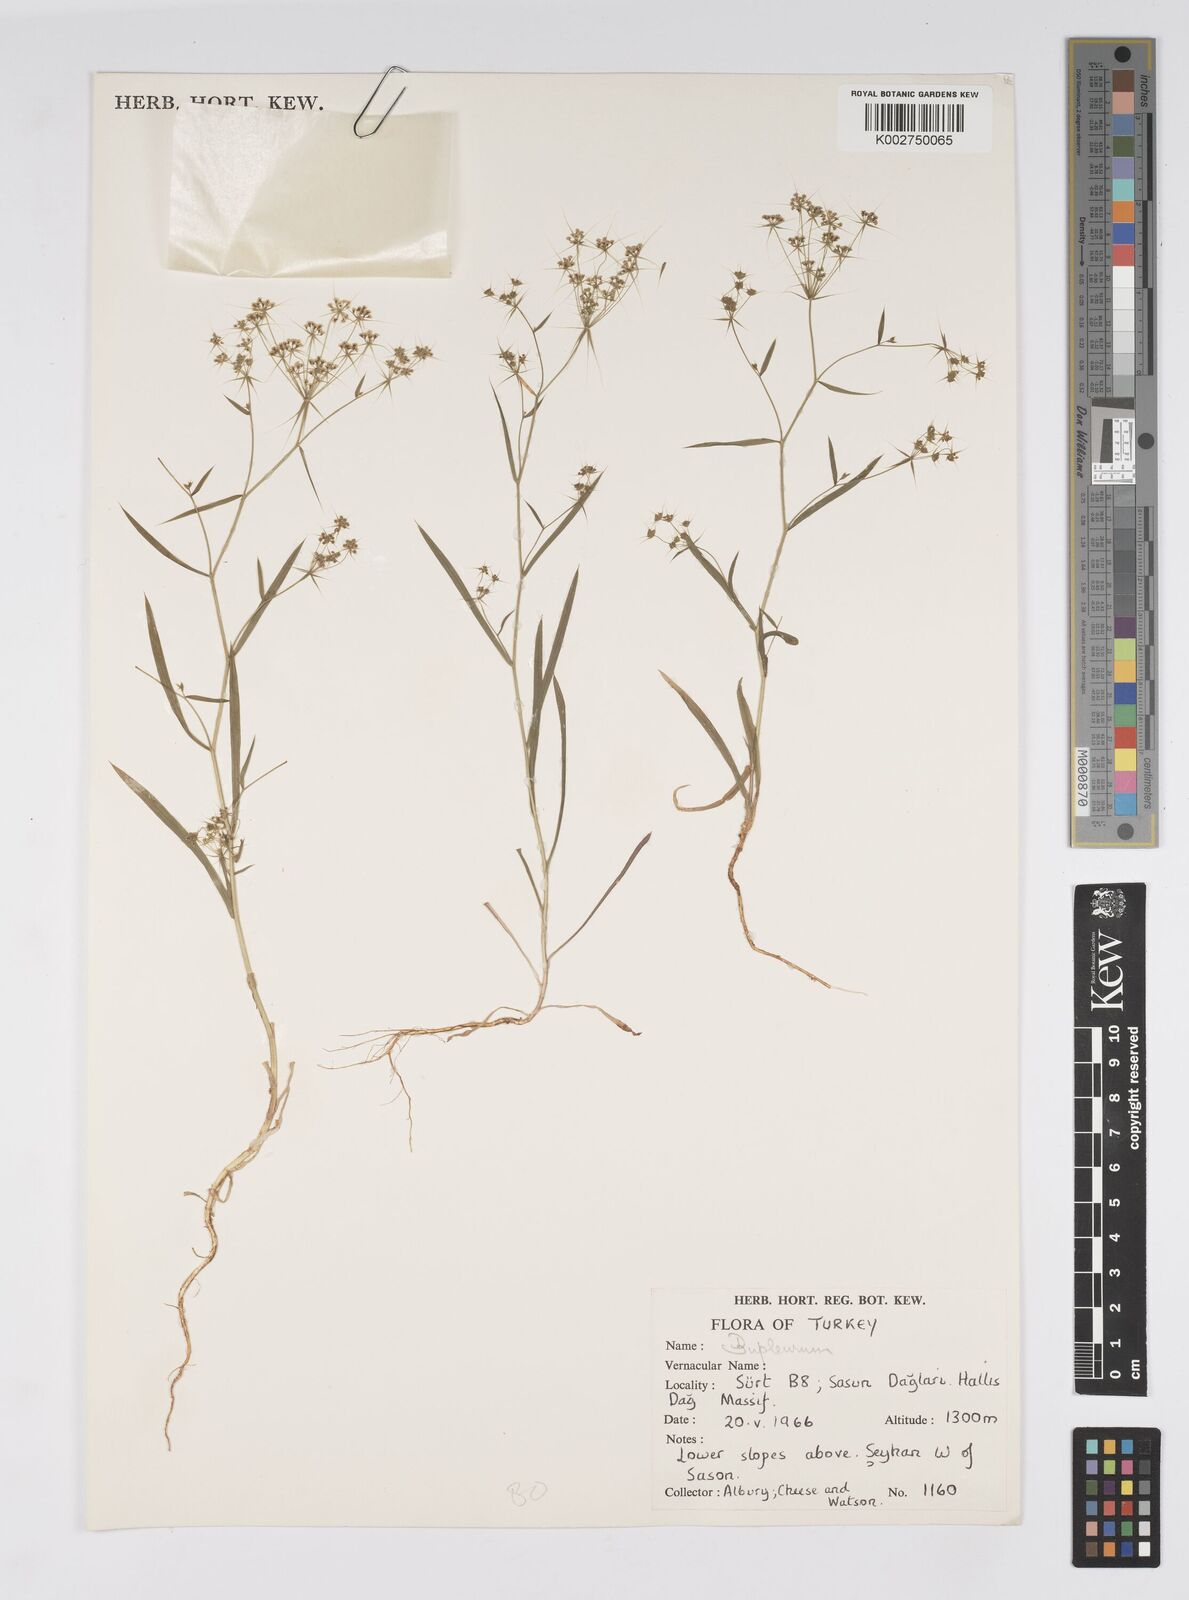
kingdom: Plantae
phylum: Tracheophyta
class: Magnoliopsida
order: Apiales
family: Apiaceae
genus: Bupleurum
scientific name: Bupleurum alatum
